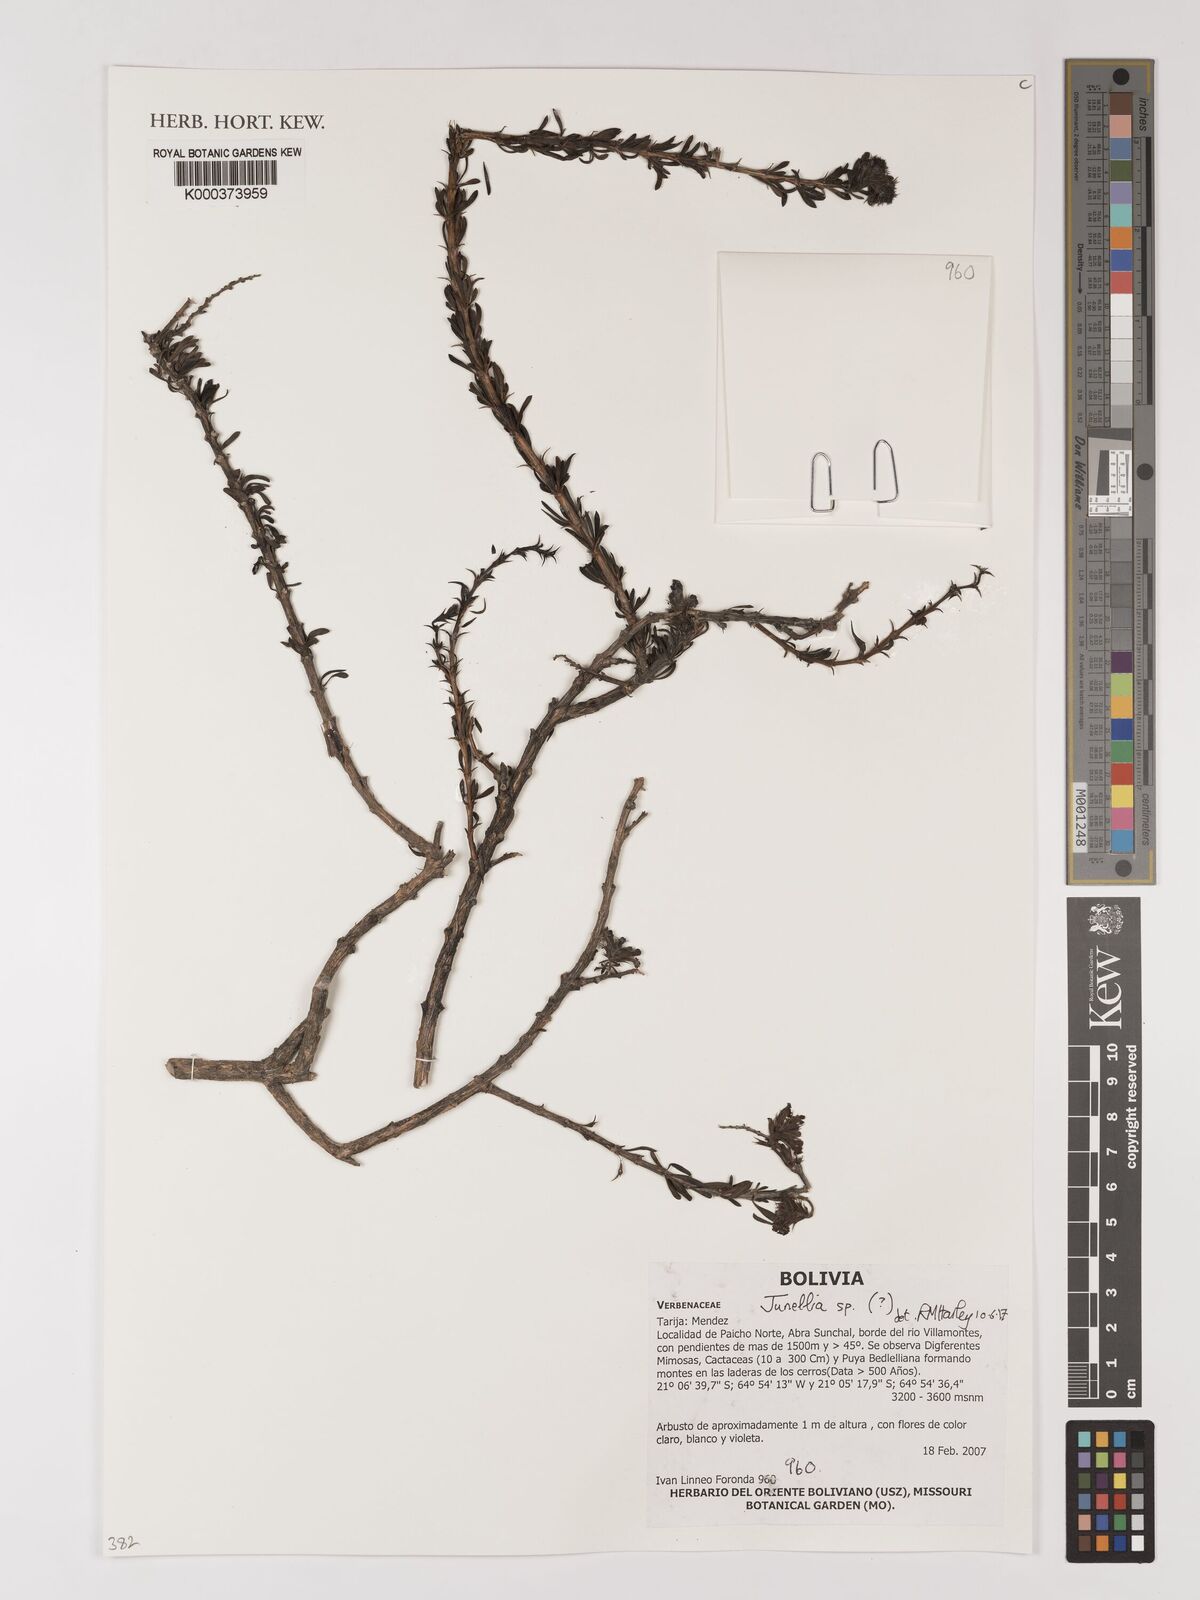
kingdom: Plantae
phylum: Tracheophyta
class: Magnoliopsida
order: Lamiales
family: Verbenaceae
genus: Junellia
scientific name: Junellia
